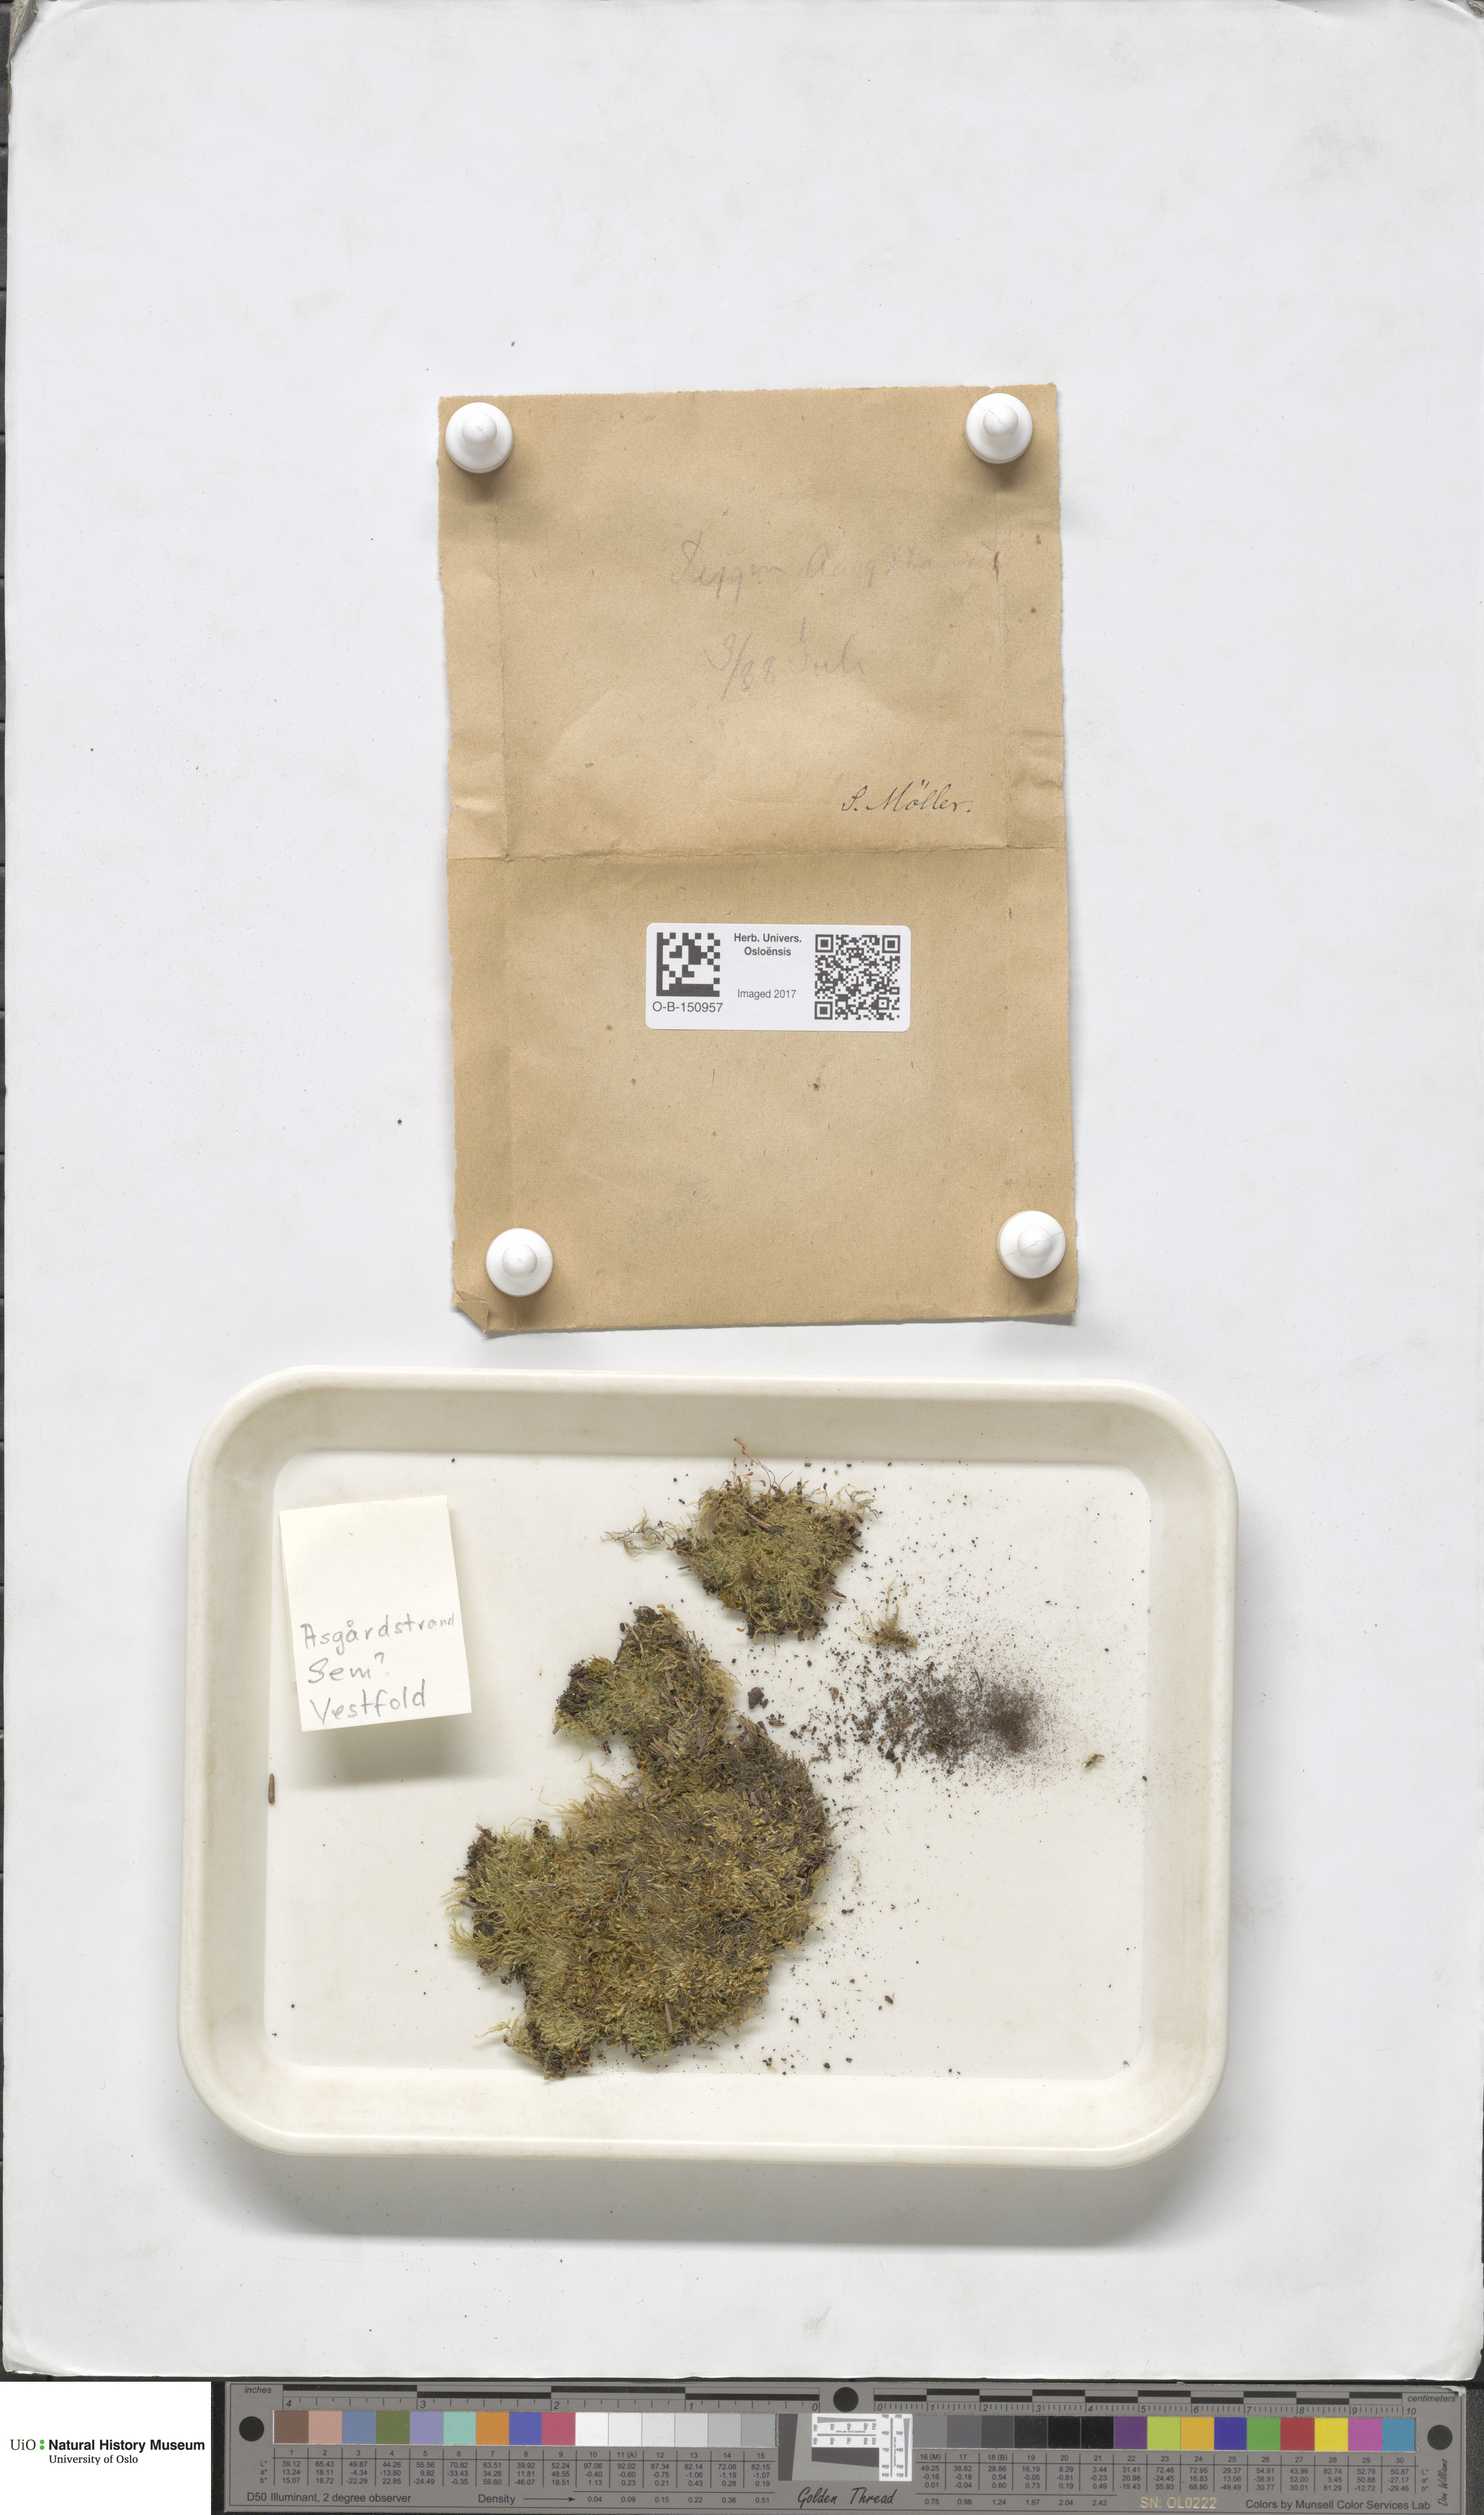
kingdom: Plantae
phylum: Bryophyta
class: Bryopsida
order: Hypnales
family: Brachytheciaceae
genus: Brachytheciastrum
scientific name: Brachytheciastrum velutinum
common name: Velvet feather-moss
